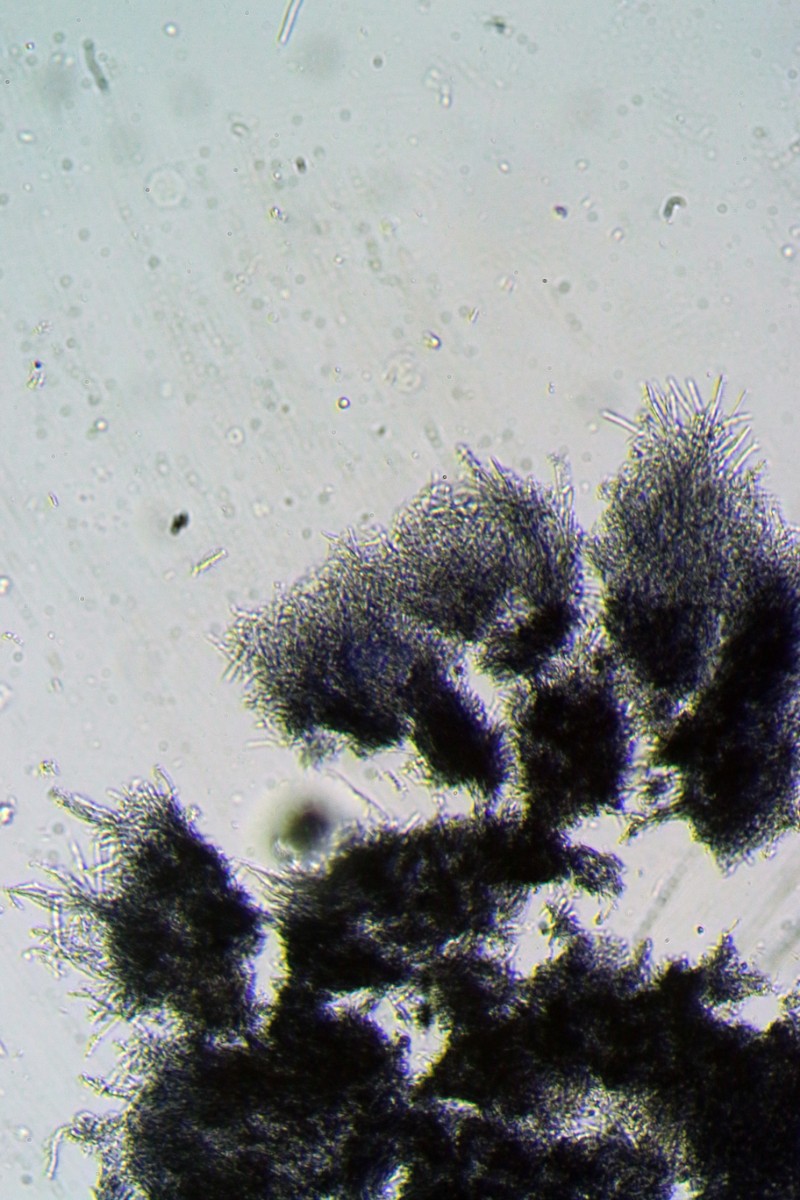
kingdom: Fungi
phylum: Ascomycota
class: Leotiomycetes
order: Helotiales
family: Lachnaceae
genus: Proliferodiscus
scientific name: Proliferodiscus pulveraceus
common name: askegrå frynseskive
